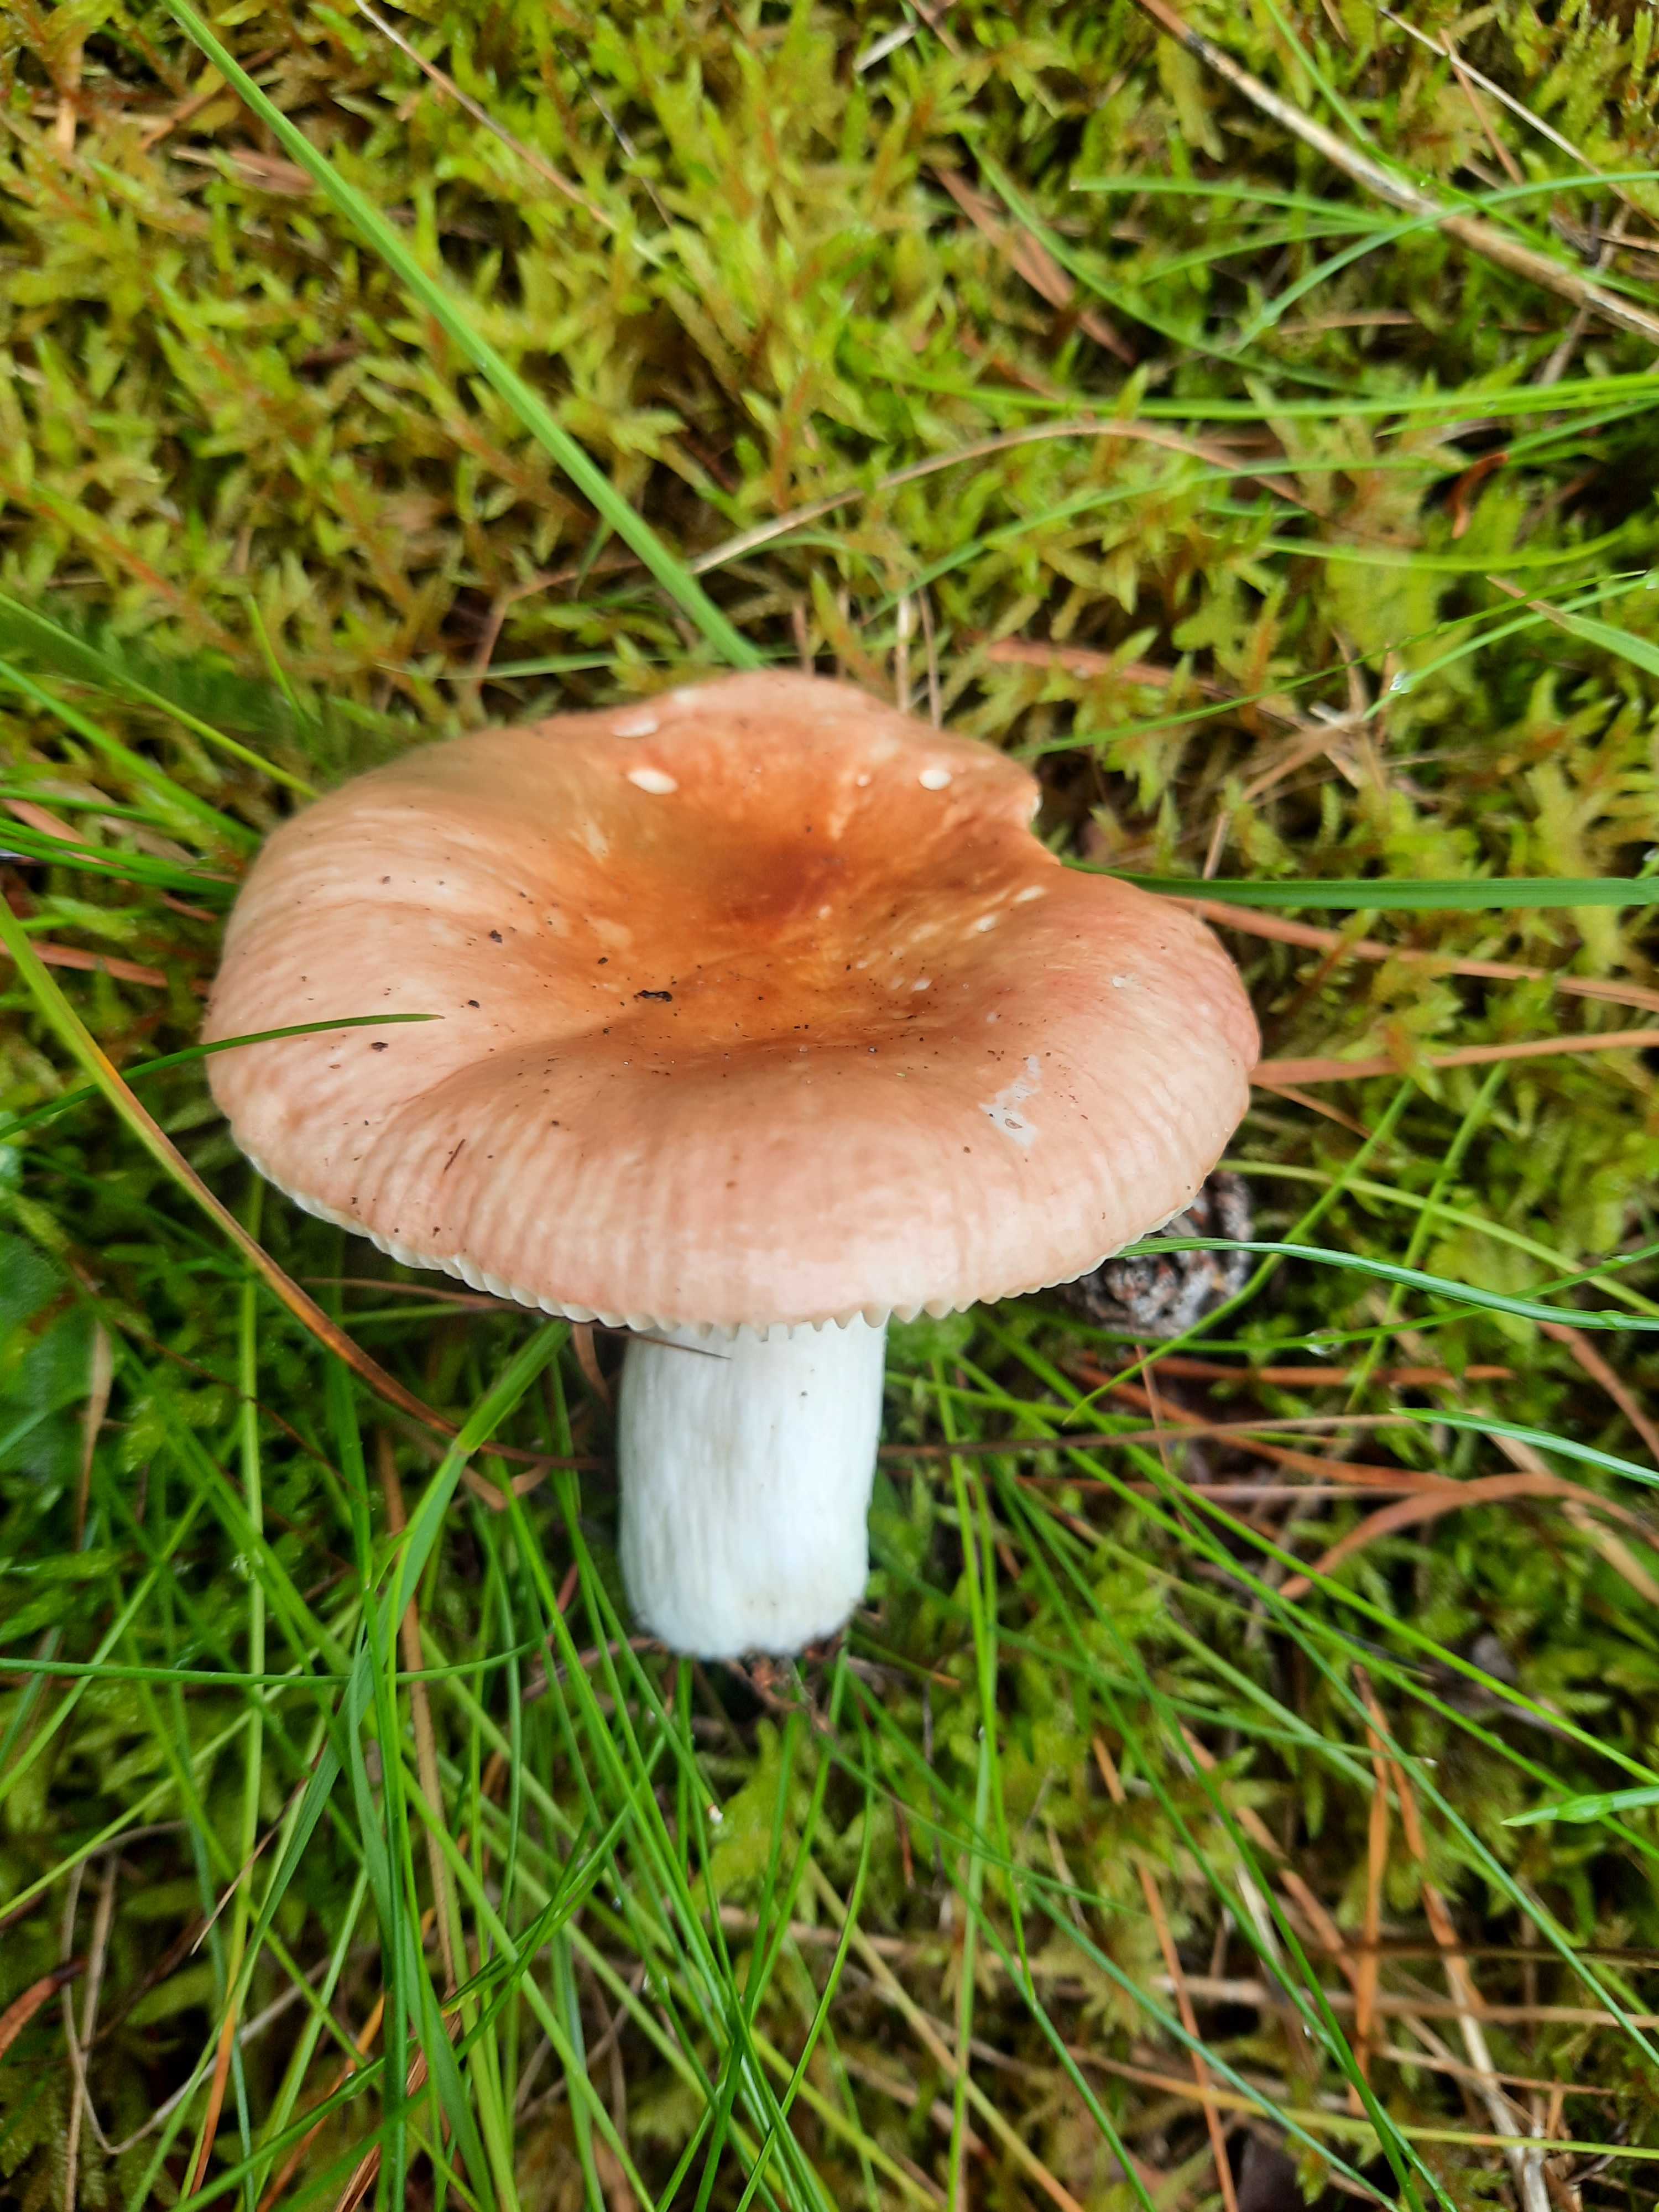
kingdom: Fungi
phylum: Basidiomycota
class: Agaricomycetes
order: Russulales
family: Russulaceae
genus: Russula
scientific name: Russula
